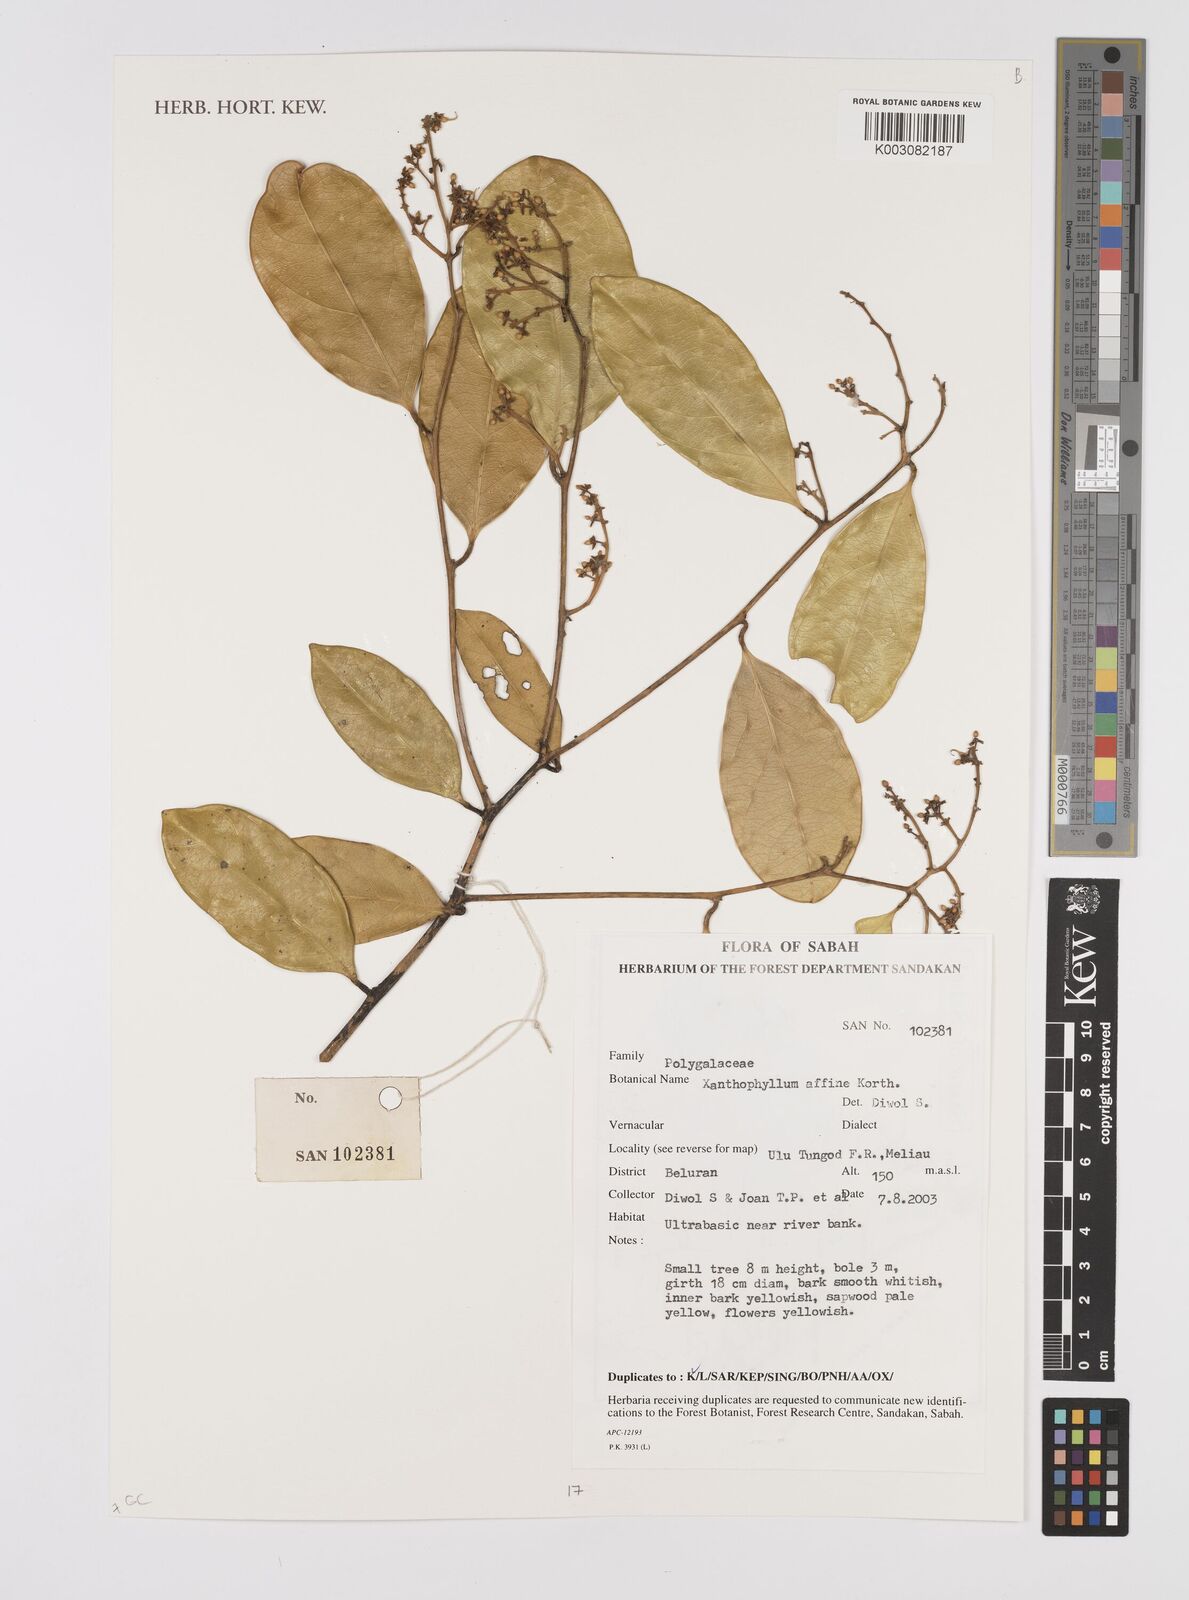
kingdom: Plantae
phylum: Tracheophyta
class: Magnoliopsida
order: Fabales
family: Polygalaceae
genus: Xanthophyllum
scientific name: Xanthophyllum flavescens
